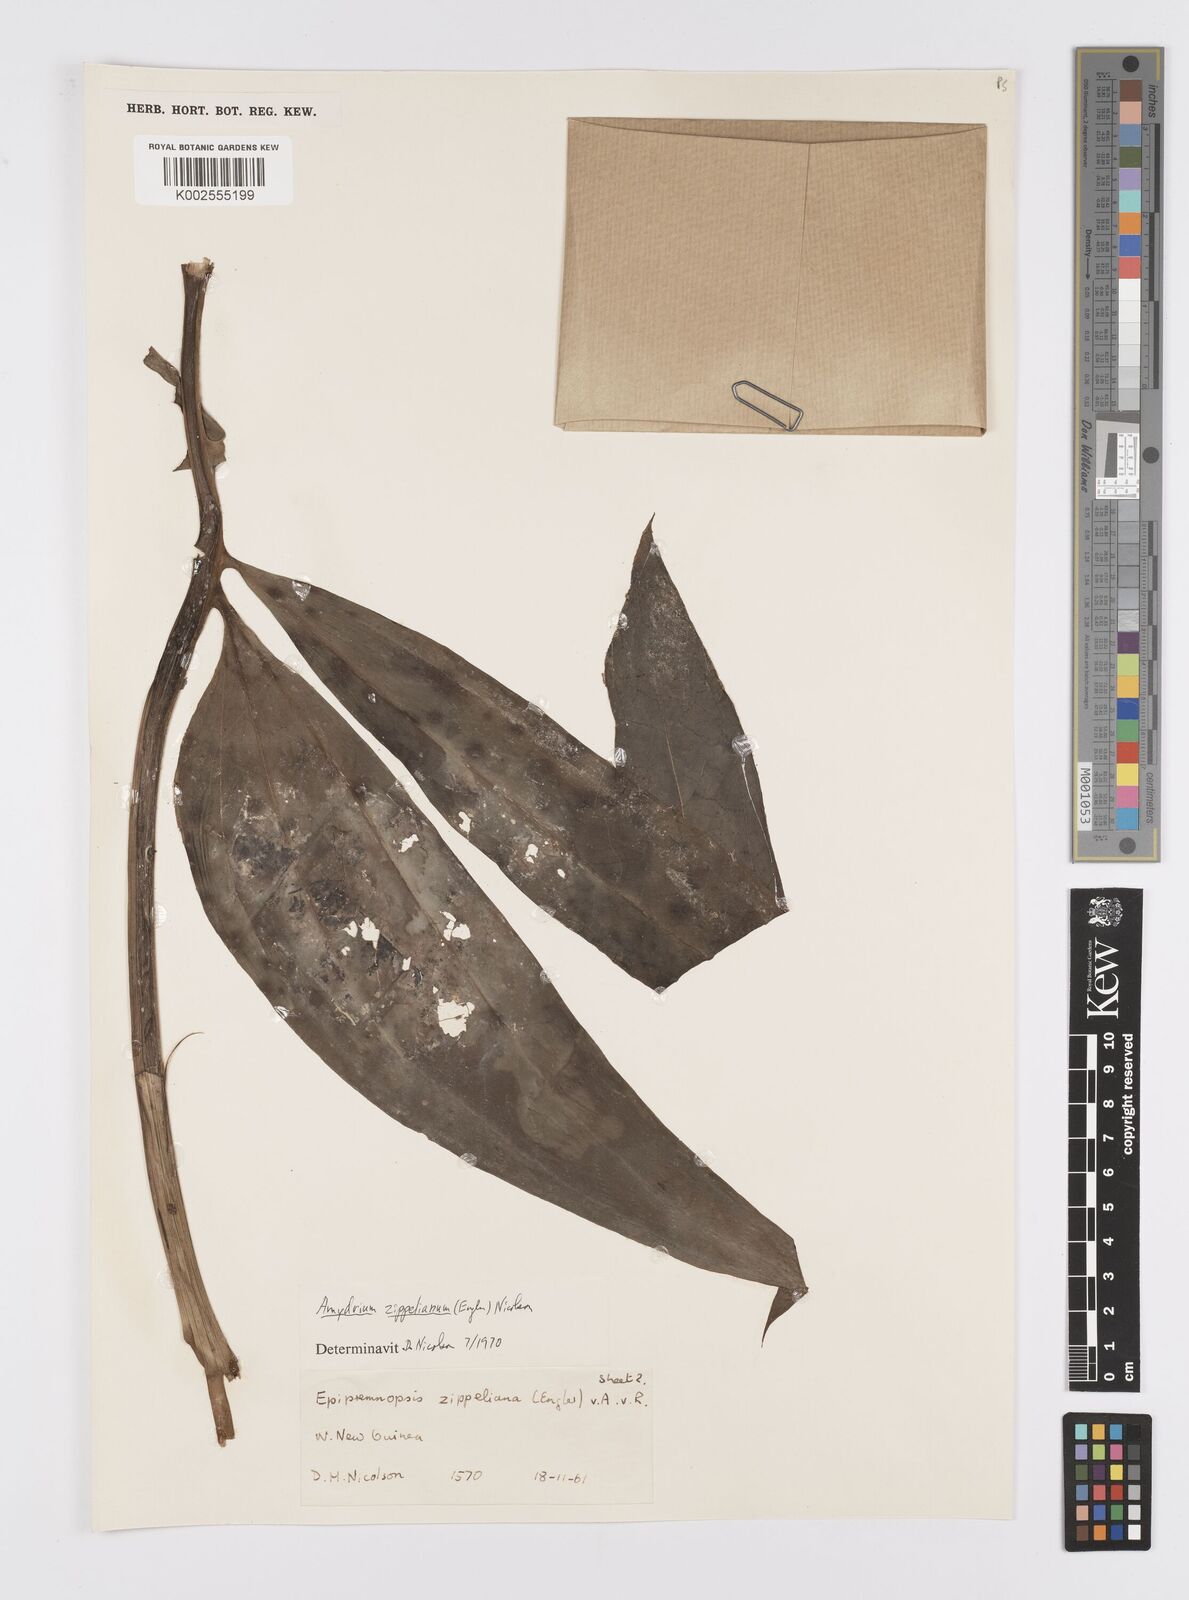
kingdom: Plantae
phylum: Tracheophyta
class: Liliopsida
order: Alismatales
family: Araceae
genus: Amydrium
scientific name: Amydrium zippelianum
